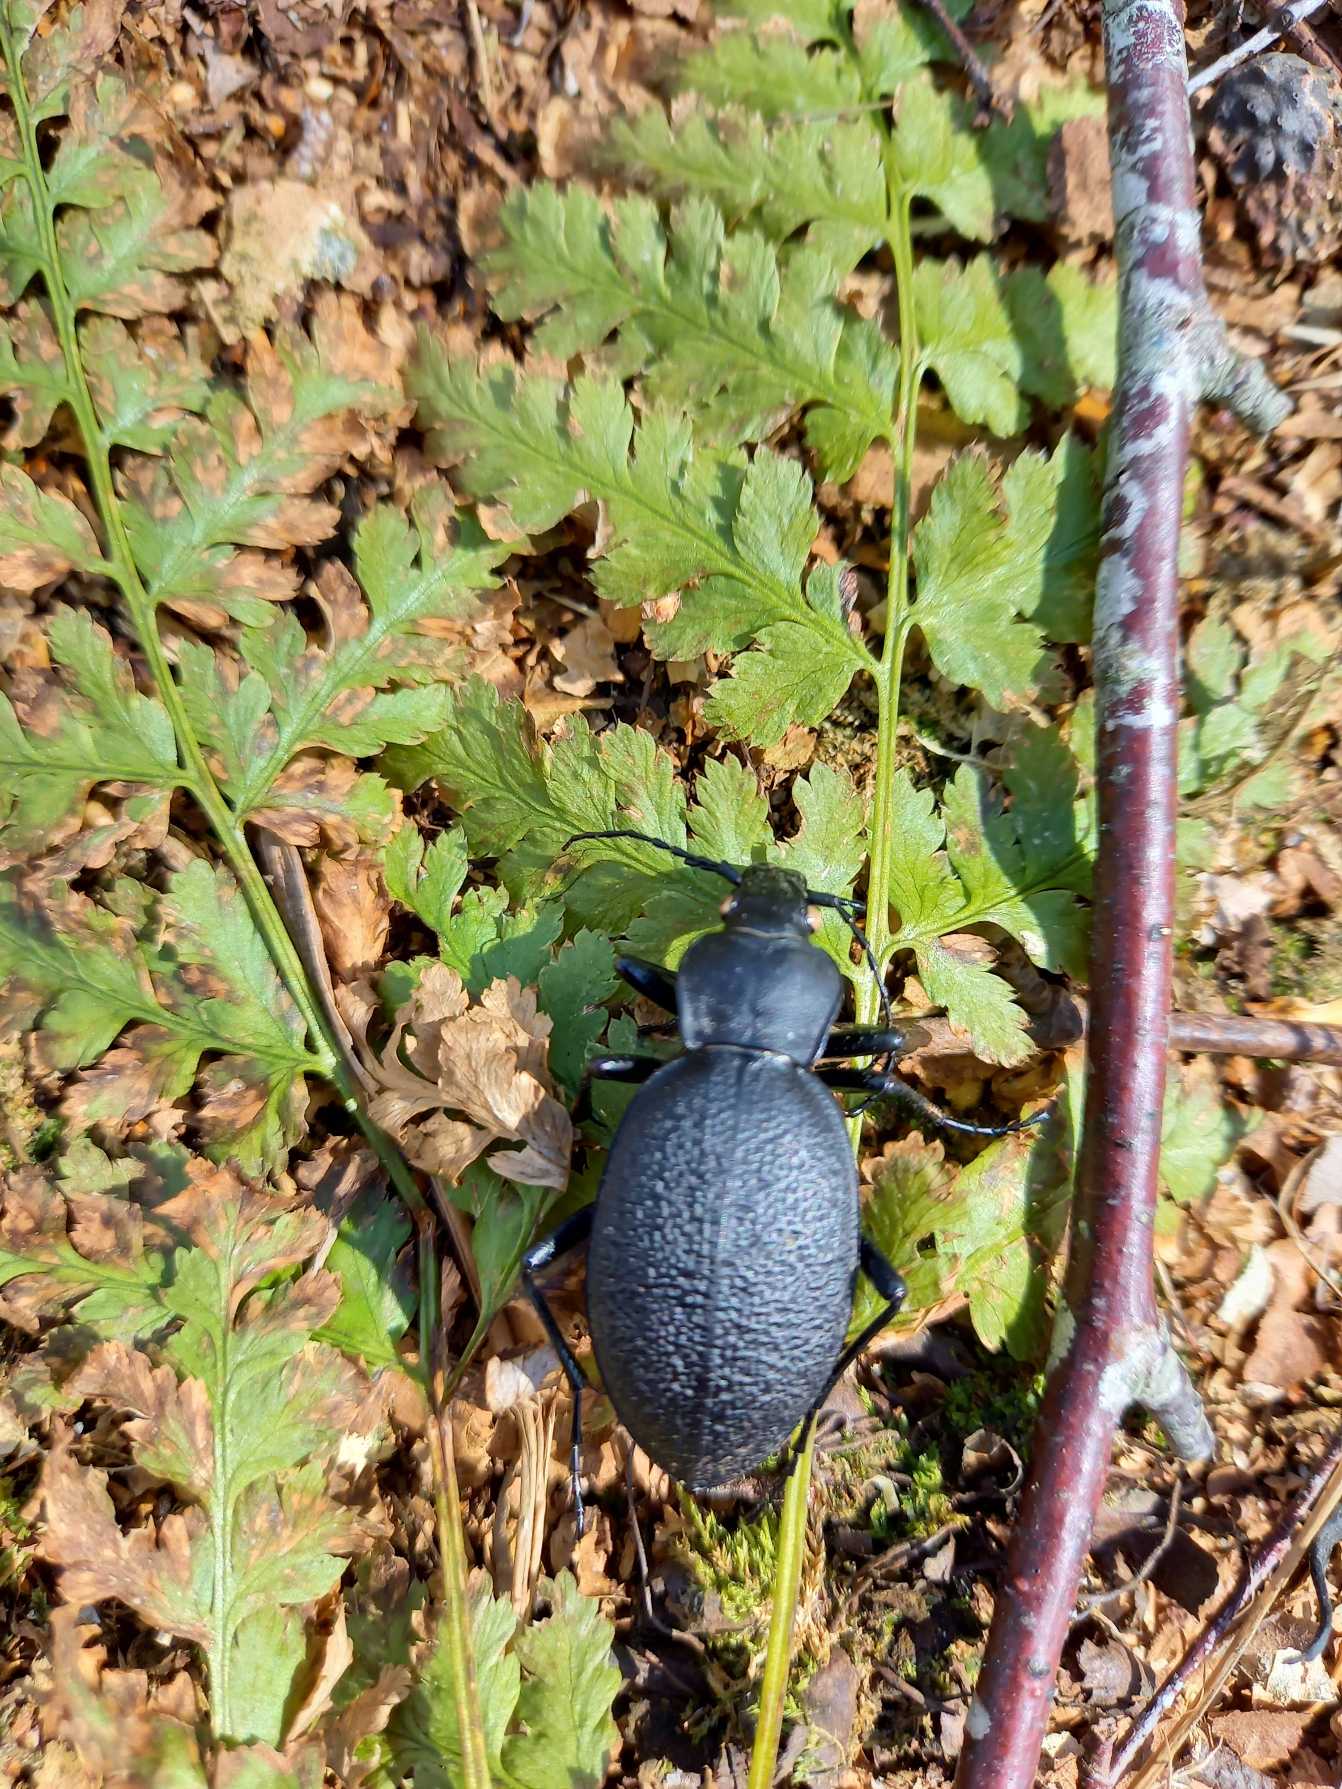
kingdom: Animalia
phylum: Arthropoda
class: Insecta
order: Coleoptera
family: Carabidae
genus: Carabus
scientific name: Carabus coriaceus
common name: Læderløber
